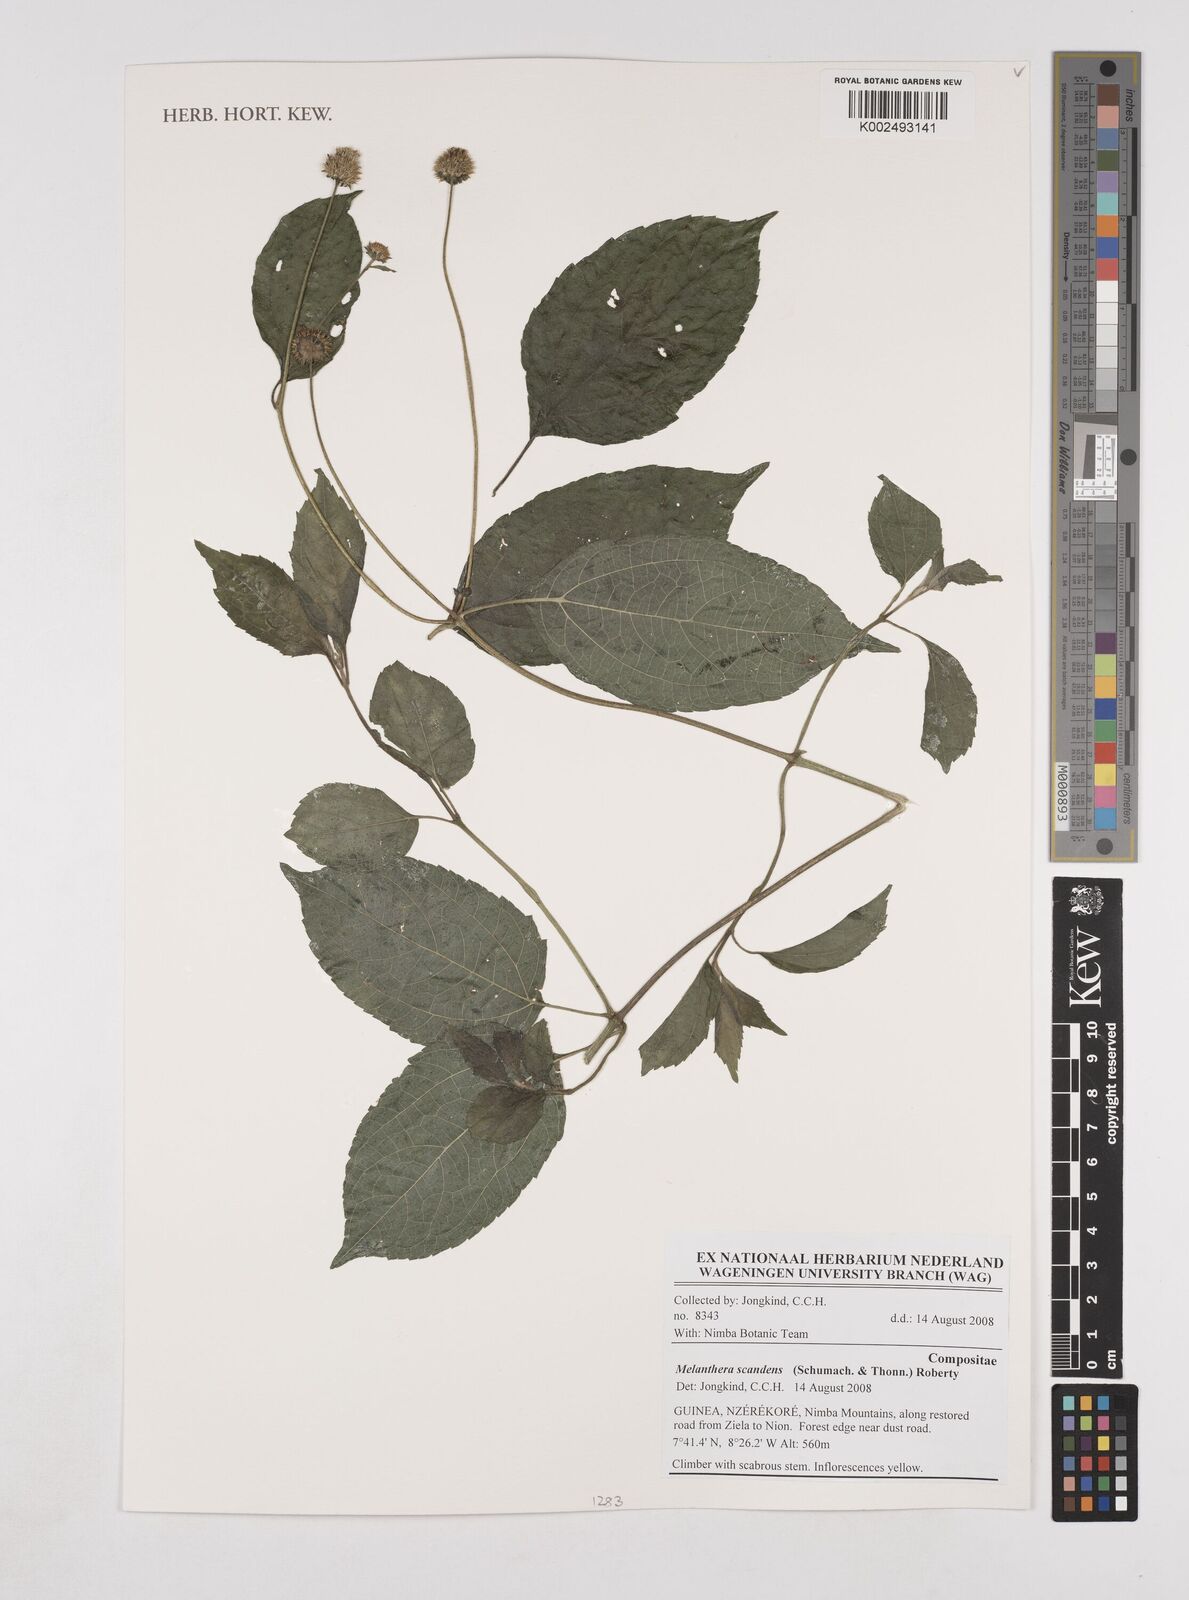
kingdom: Plantae
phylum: Tracheophyta
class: Magnoliopsida
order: Asterales
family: Asteraceae
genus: Lipotriche
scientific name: Lipotriche scandens
